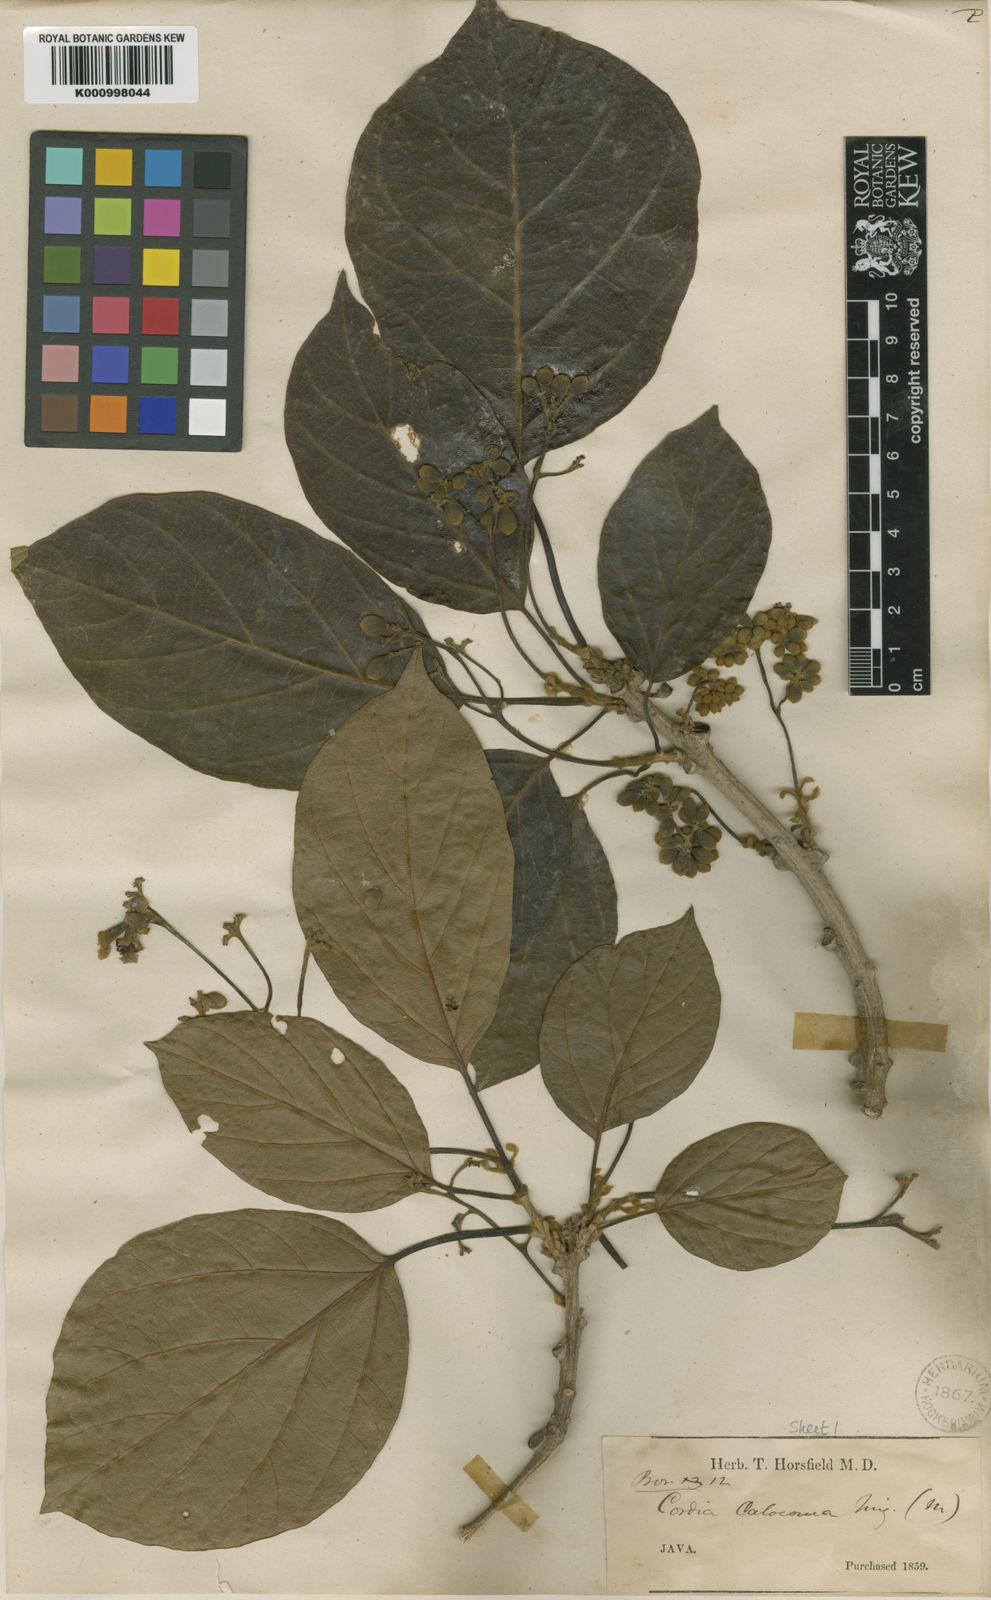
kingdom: Plantae
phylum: Tracheophyta
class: Magnoliopsida
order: Boraginales
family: Cordiaceae
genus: Cordia
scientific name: Cordia bantamensis
